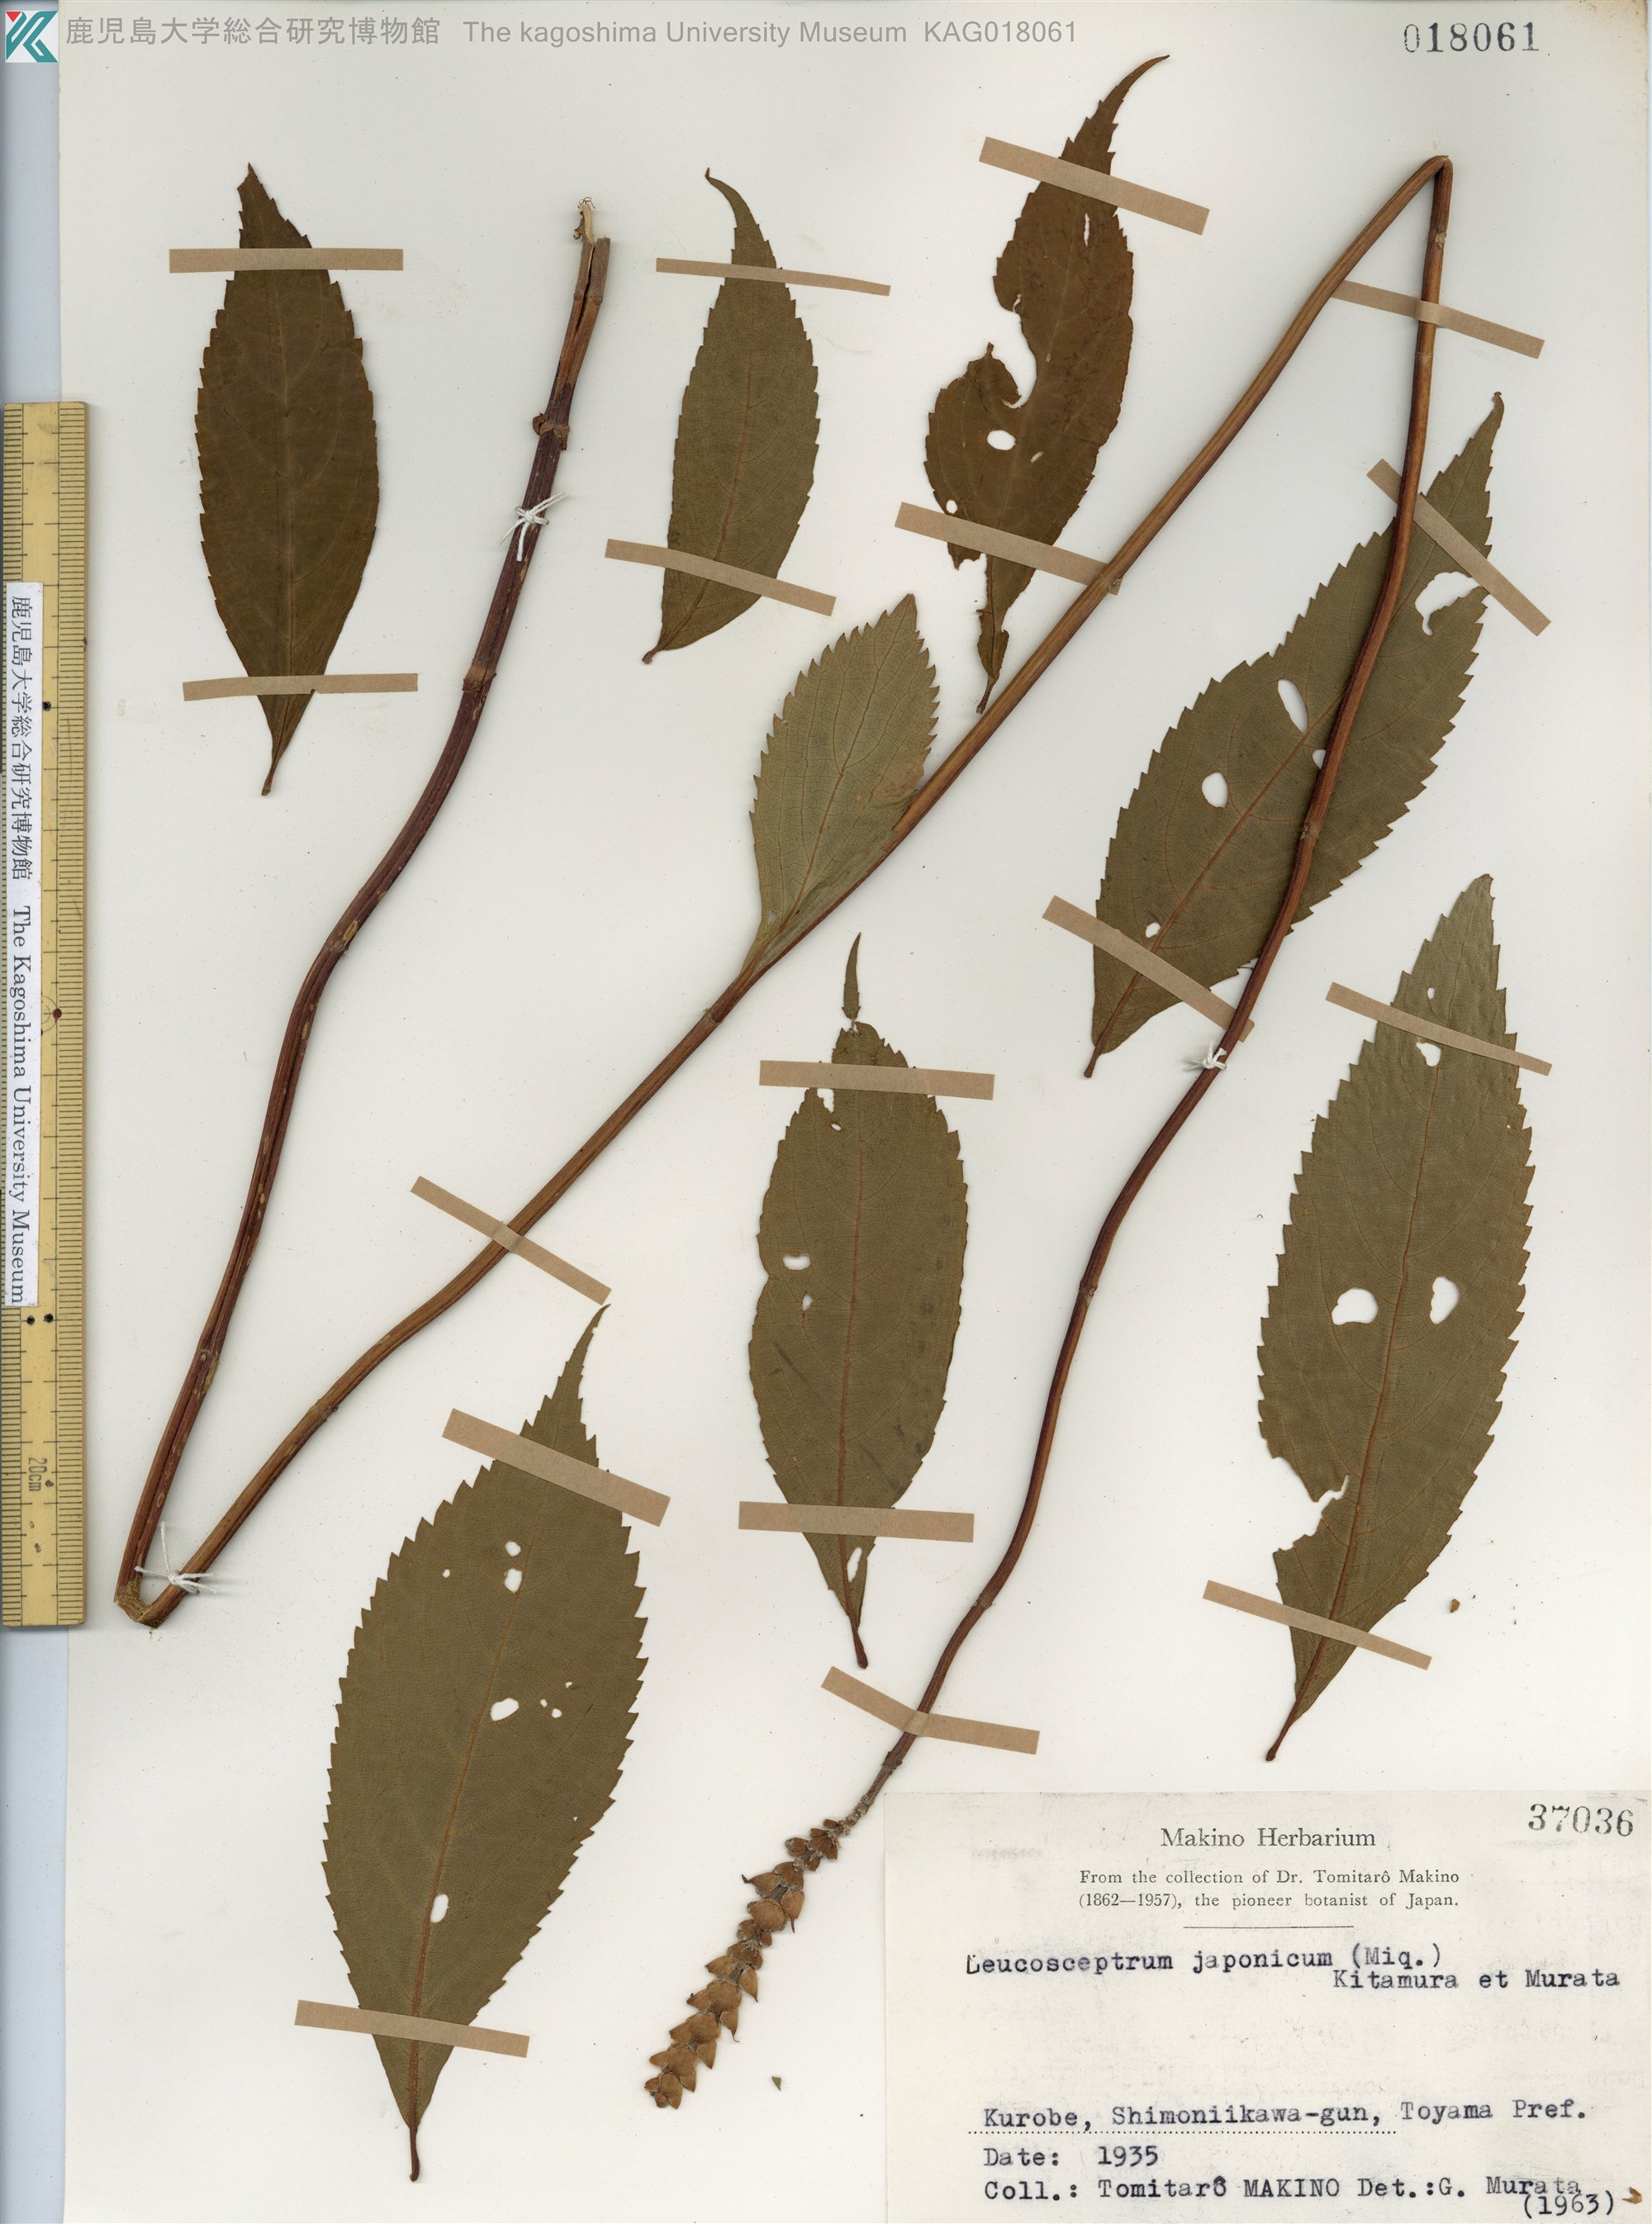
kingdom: Plantae
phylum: Tracheophyta
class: Magnoliopsida
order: Lamiales
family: Lamiaceae
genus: Comanthosphace
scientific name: Comanthosphace japonica
